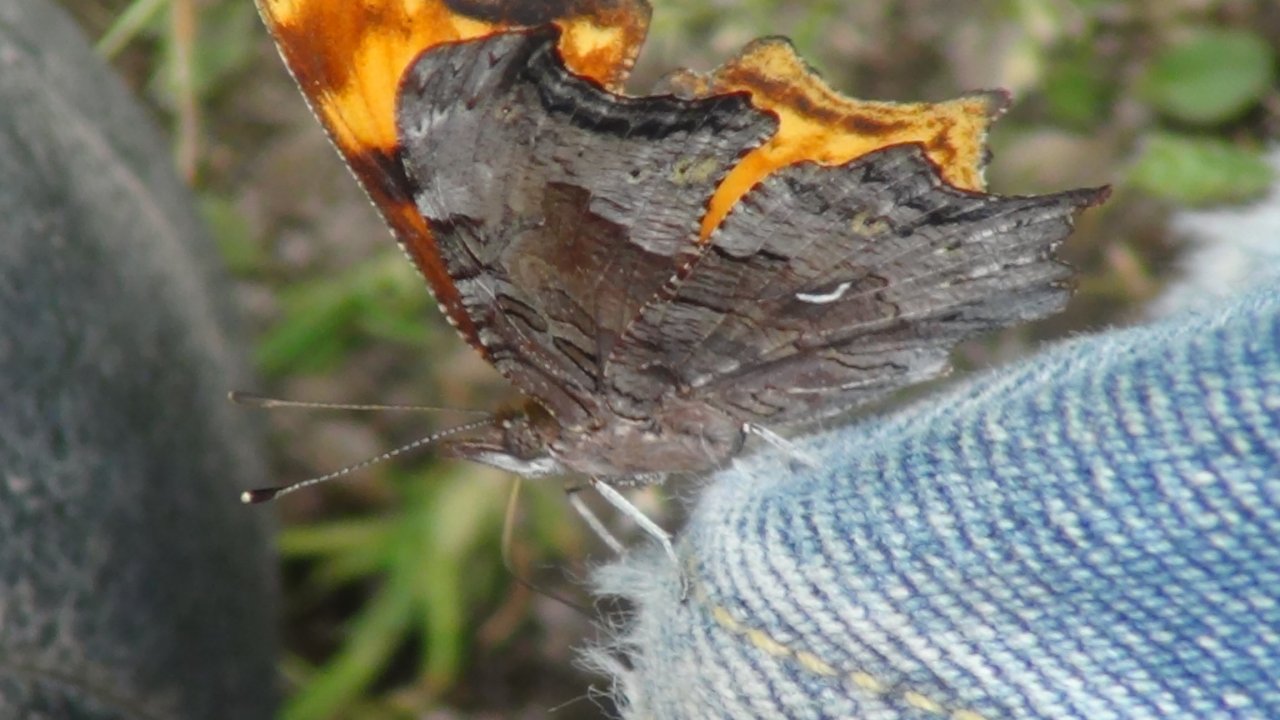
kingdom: Animalia
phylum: Arthropoda
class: Insecta
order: Lepidoptera
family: Nymphalidae
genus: Polygonia
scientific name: Polygonia gracilis
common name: Hoary Comma
